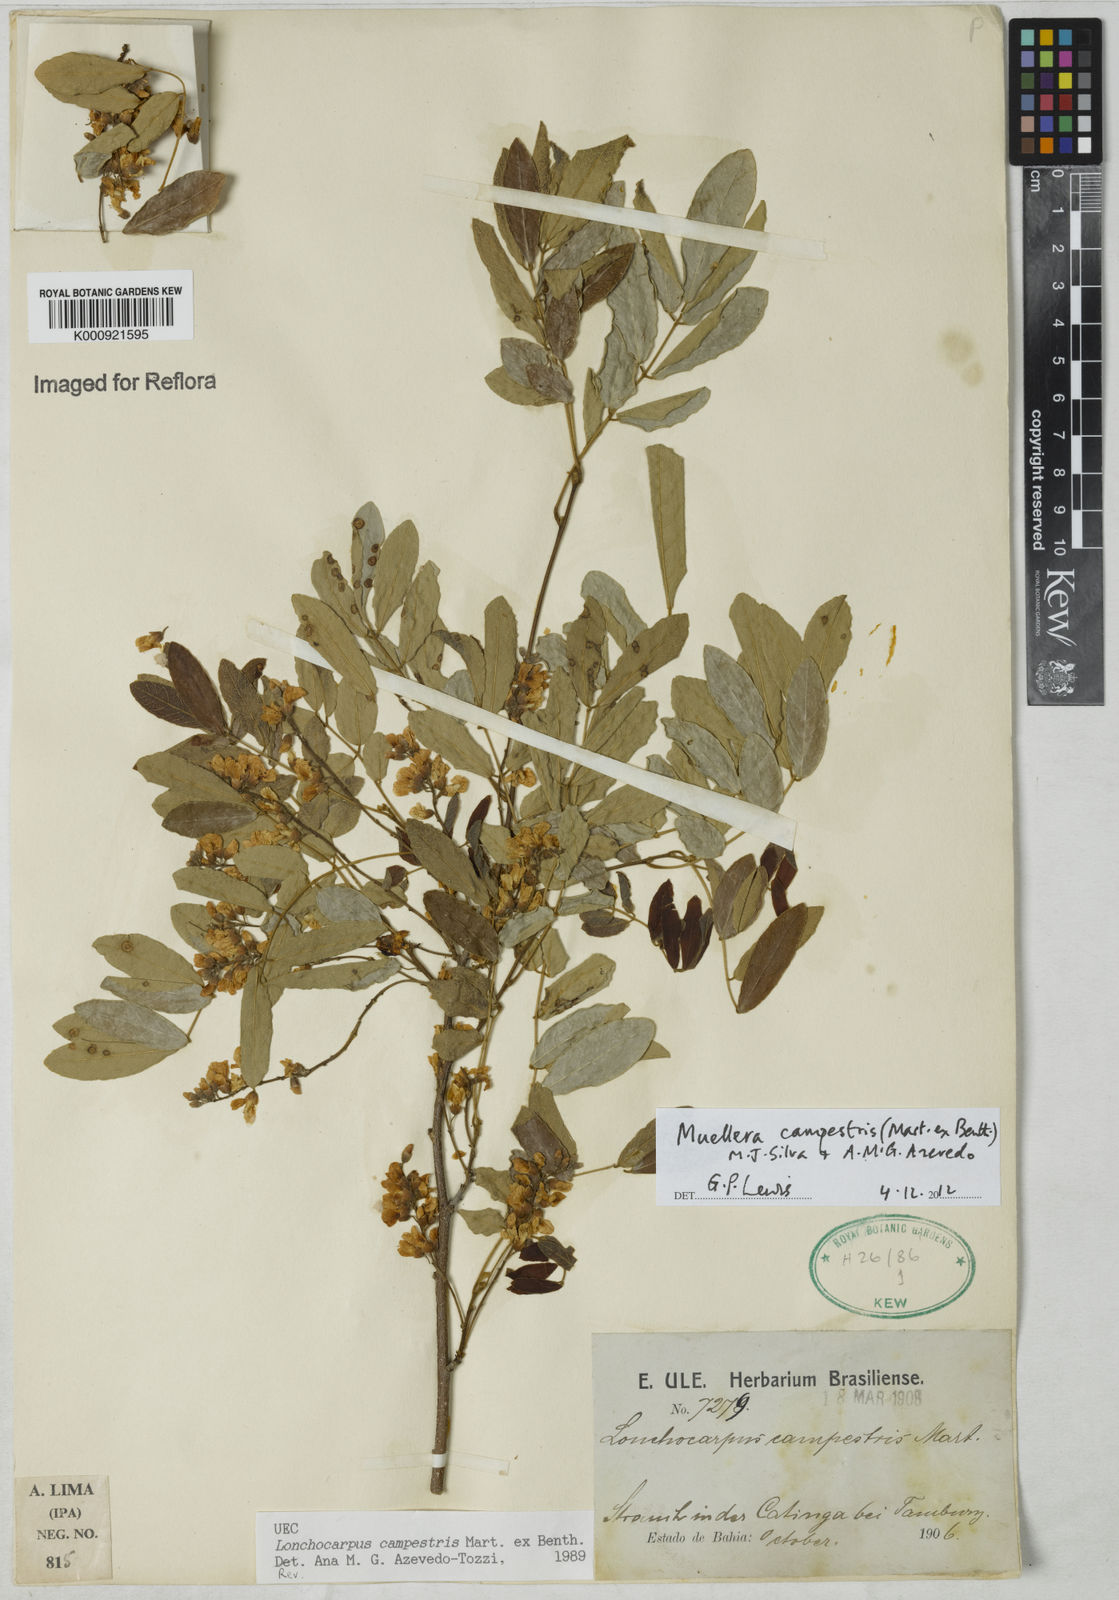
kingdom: Plantae
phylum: Tracheophyta
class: Magnoliopsida
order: Fabales
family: Fabaceae
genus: Muellera
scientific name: Muellera campestris
